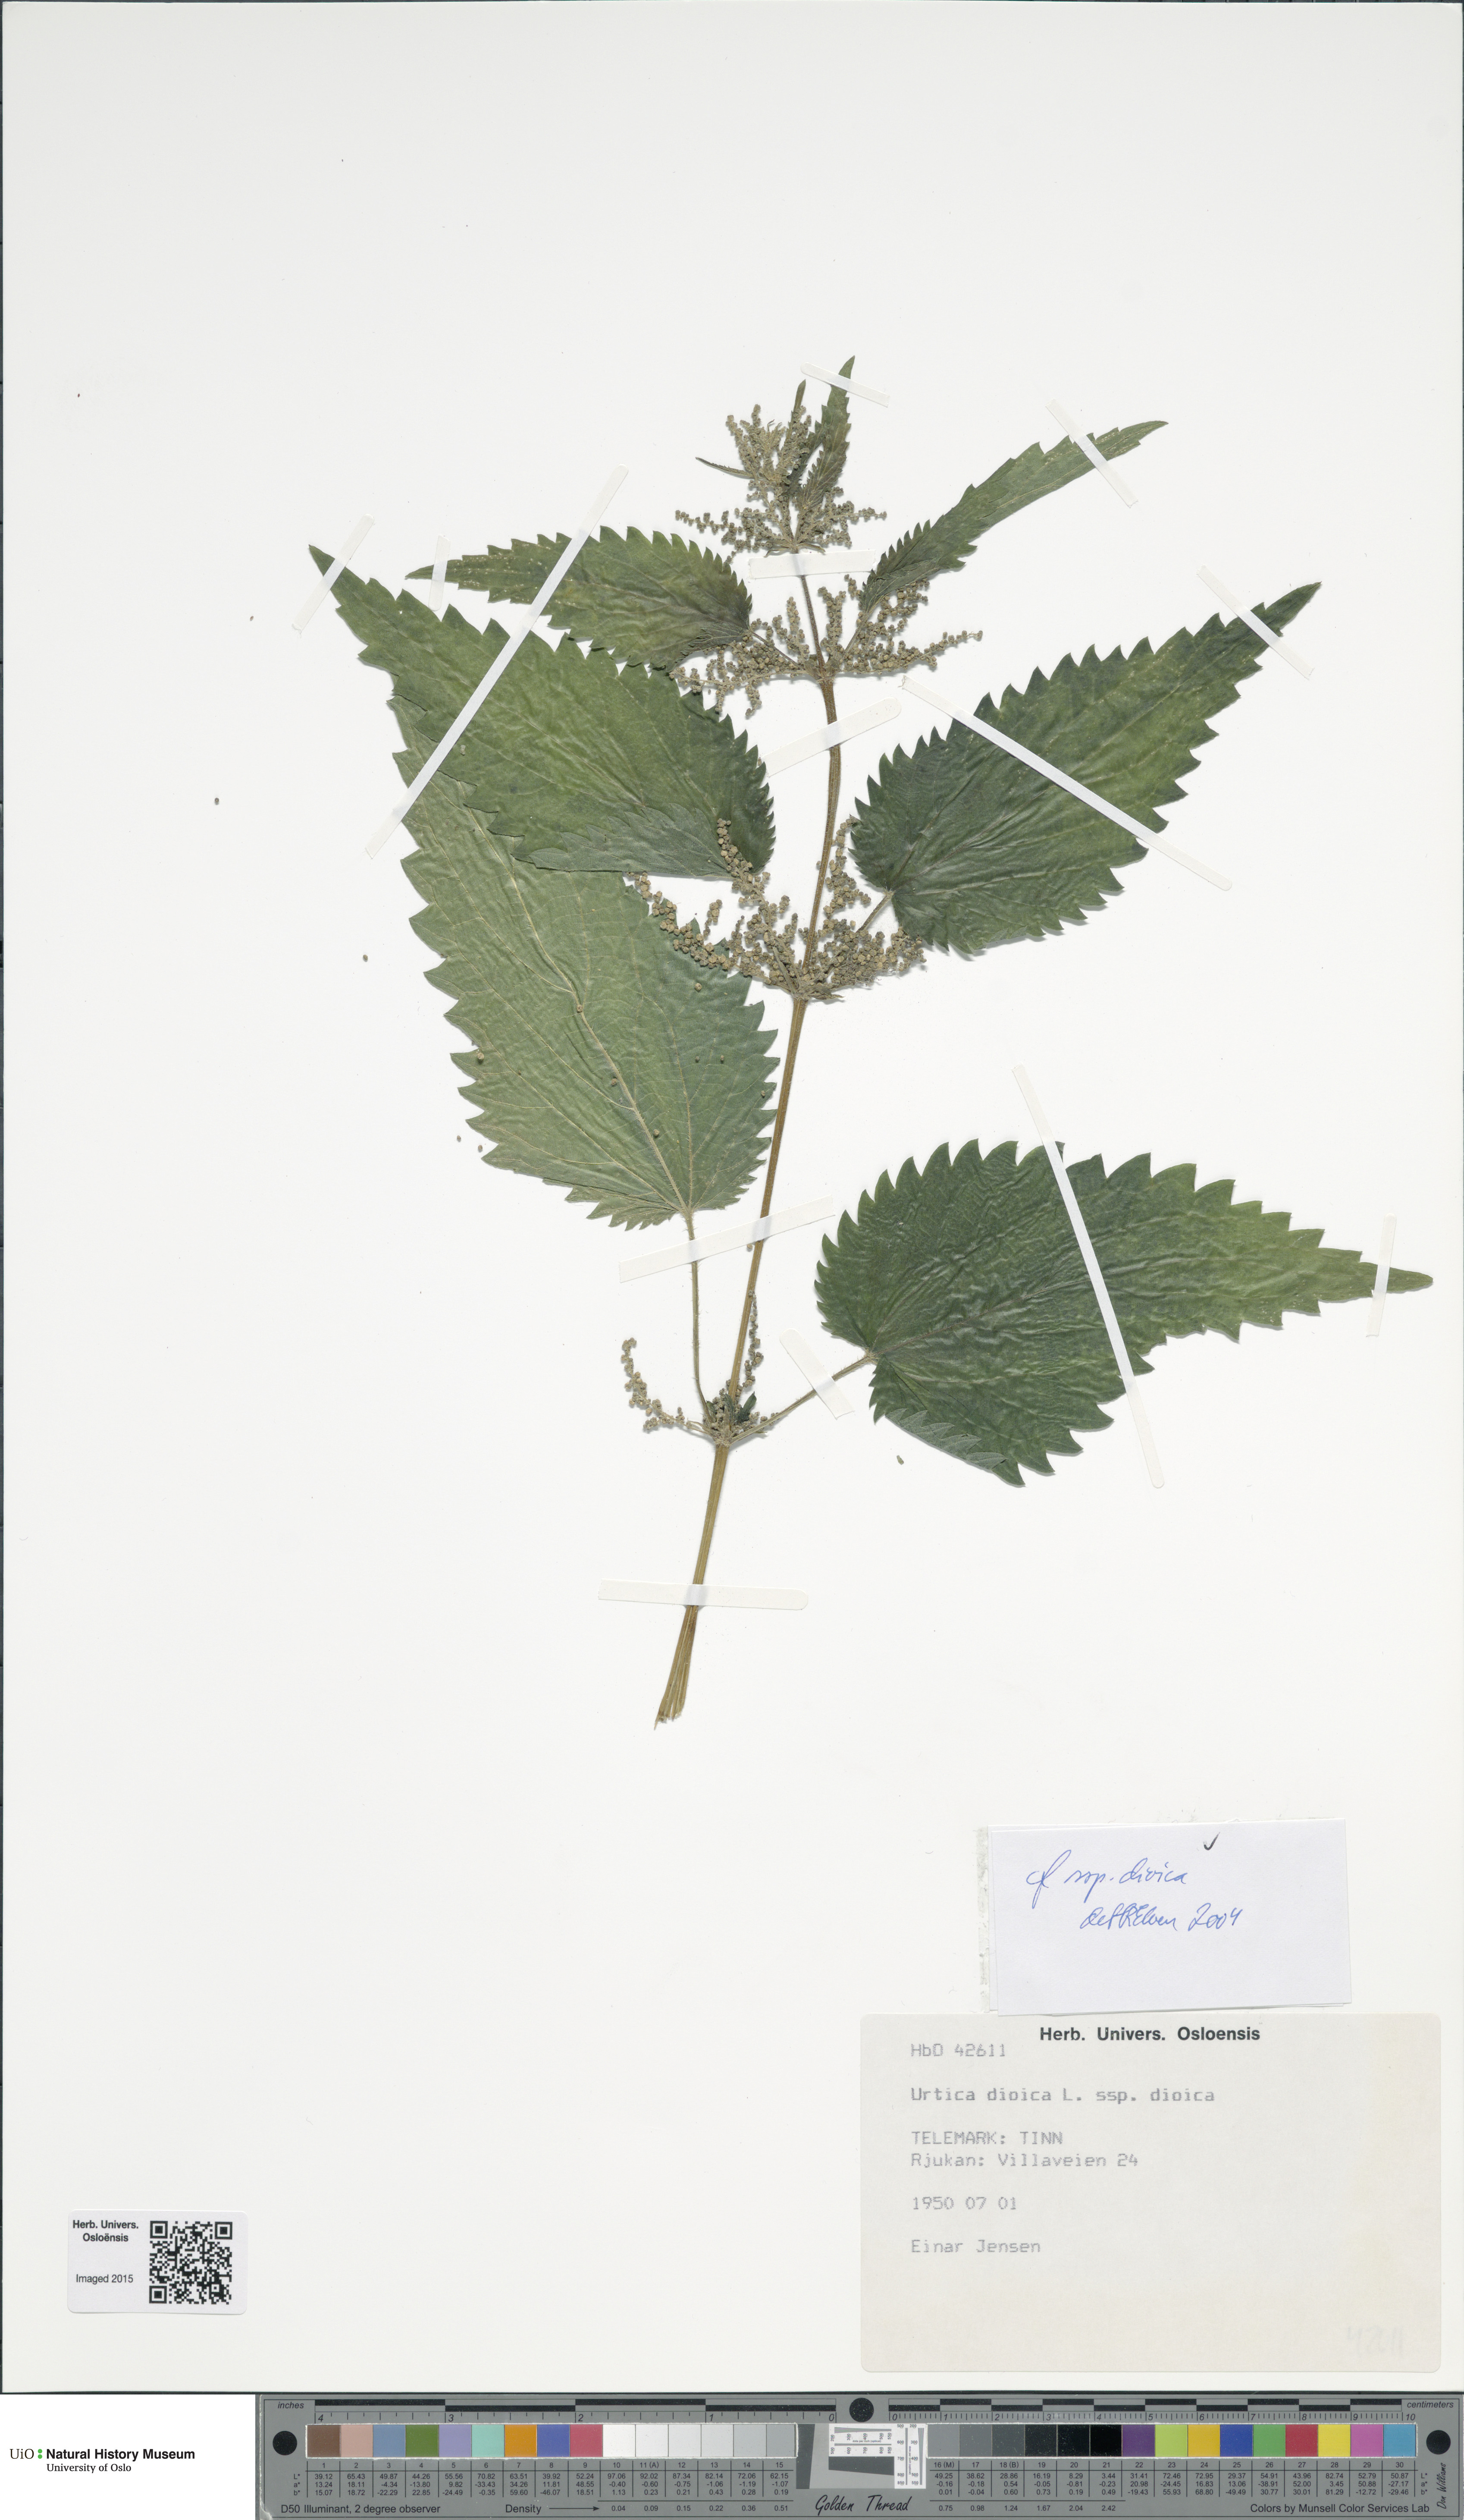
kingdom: Plantae
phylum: Tracheophyta
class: Magnoliopsida
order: Rosales
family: Urticaceae
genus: Urtica
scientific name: Urtica dioica
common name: Common nettle
